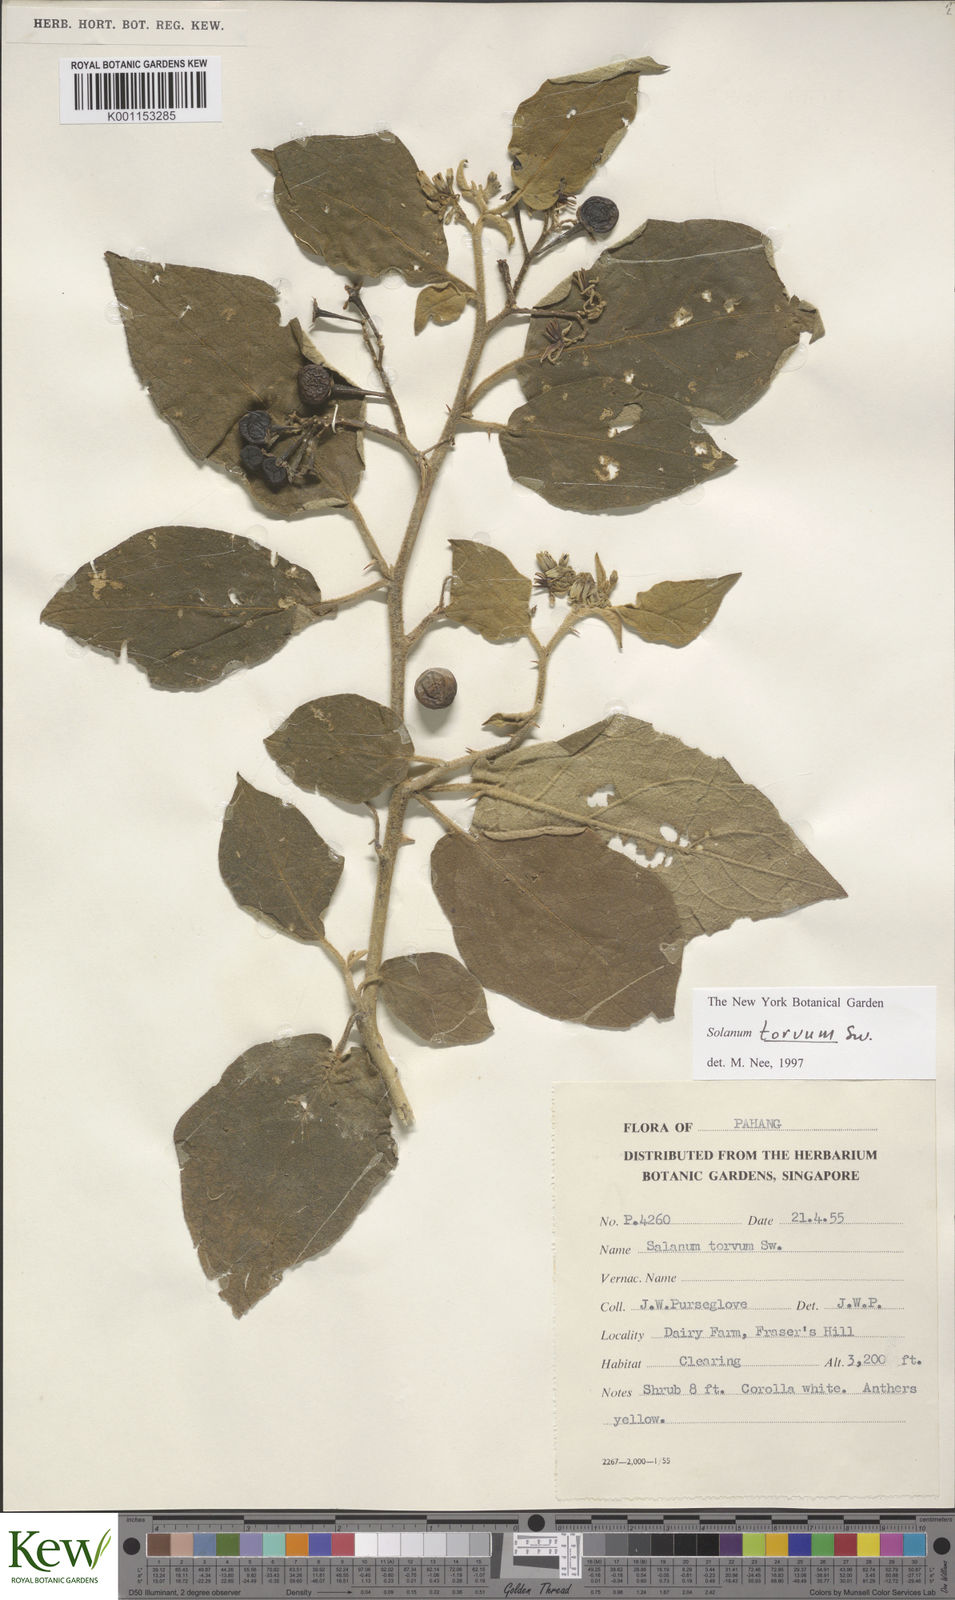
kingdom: Plantae
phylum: Tracheophyta
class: Magnoliopsida
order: Solanales
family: Solanaceae
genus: Solanum
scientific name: Solanum torvum
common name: Turkey berry
